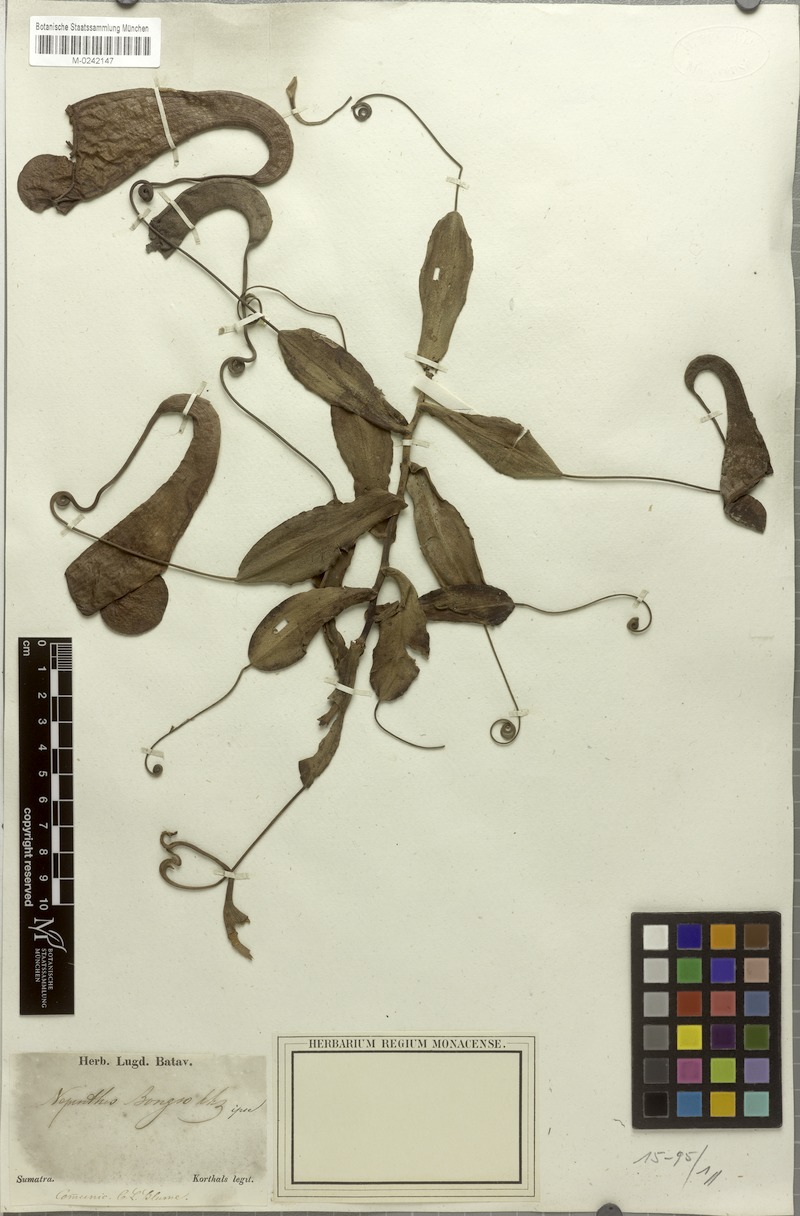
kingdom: Plantae
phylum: Tracheophyta
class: Magnoliopsida
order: Caryophyllales
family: Nepenthaceae
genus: Nepenthes
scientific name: Nepenthes bongso
